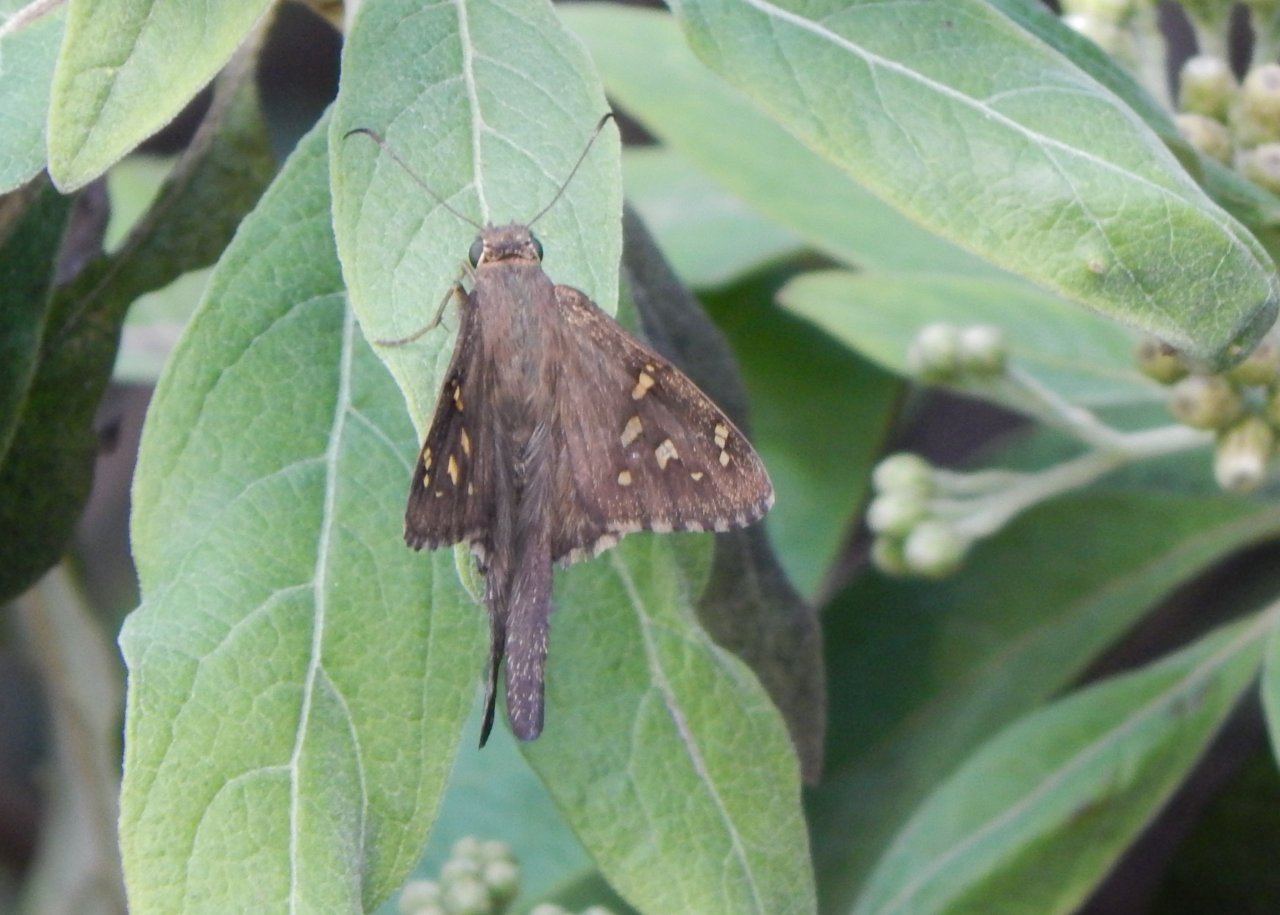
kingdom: Animalia
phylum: Arthropoda
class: Insecta
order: Lepidoptera
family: Hesperiidae
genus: Urbanus
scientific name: Urbanus dorantes
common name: Dorantes Longtail
